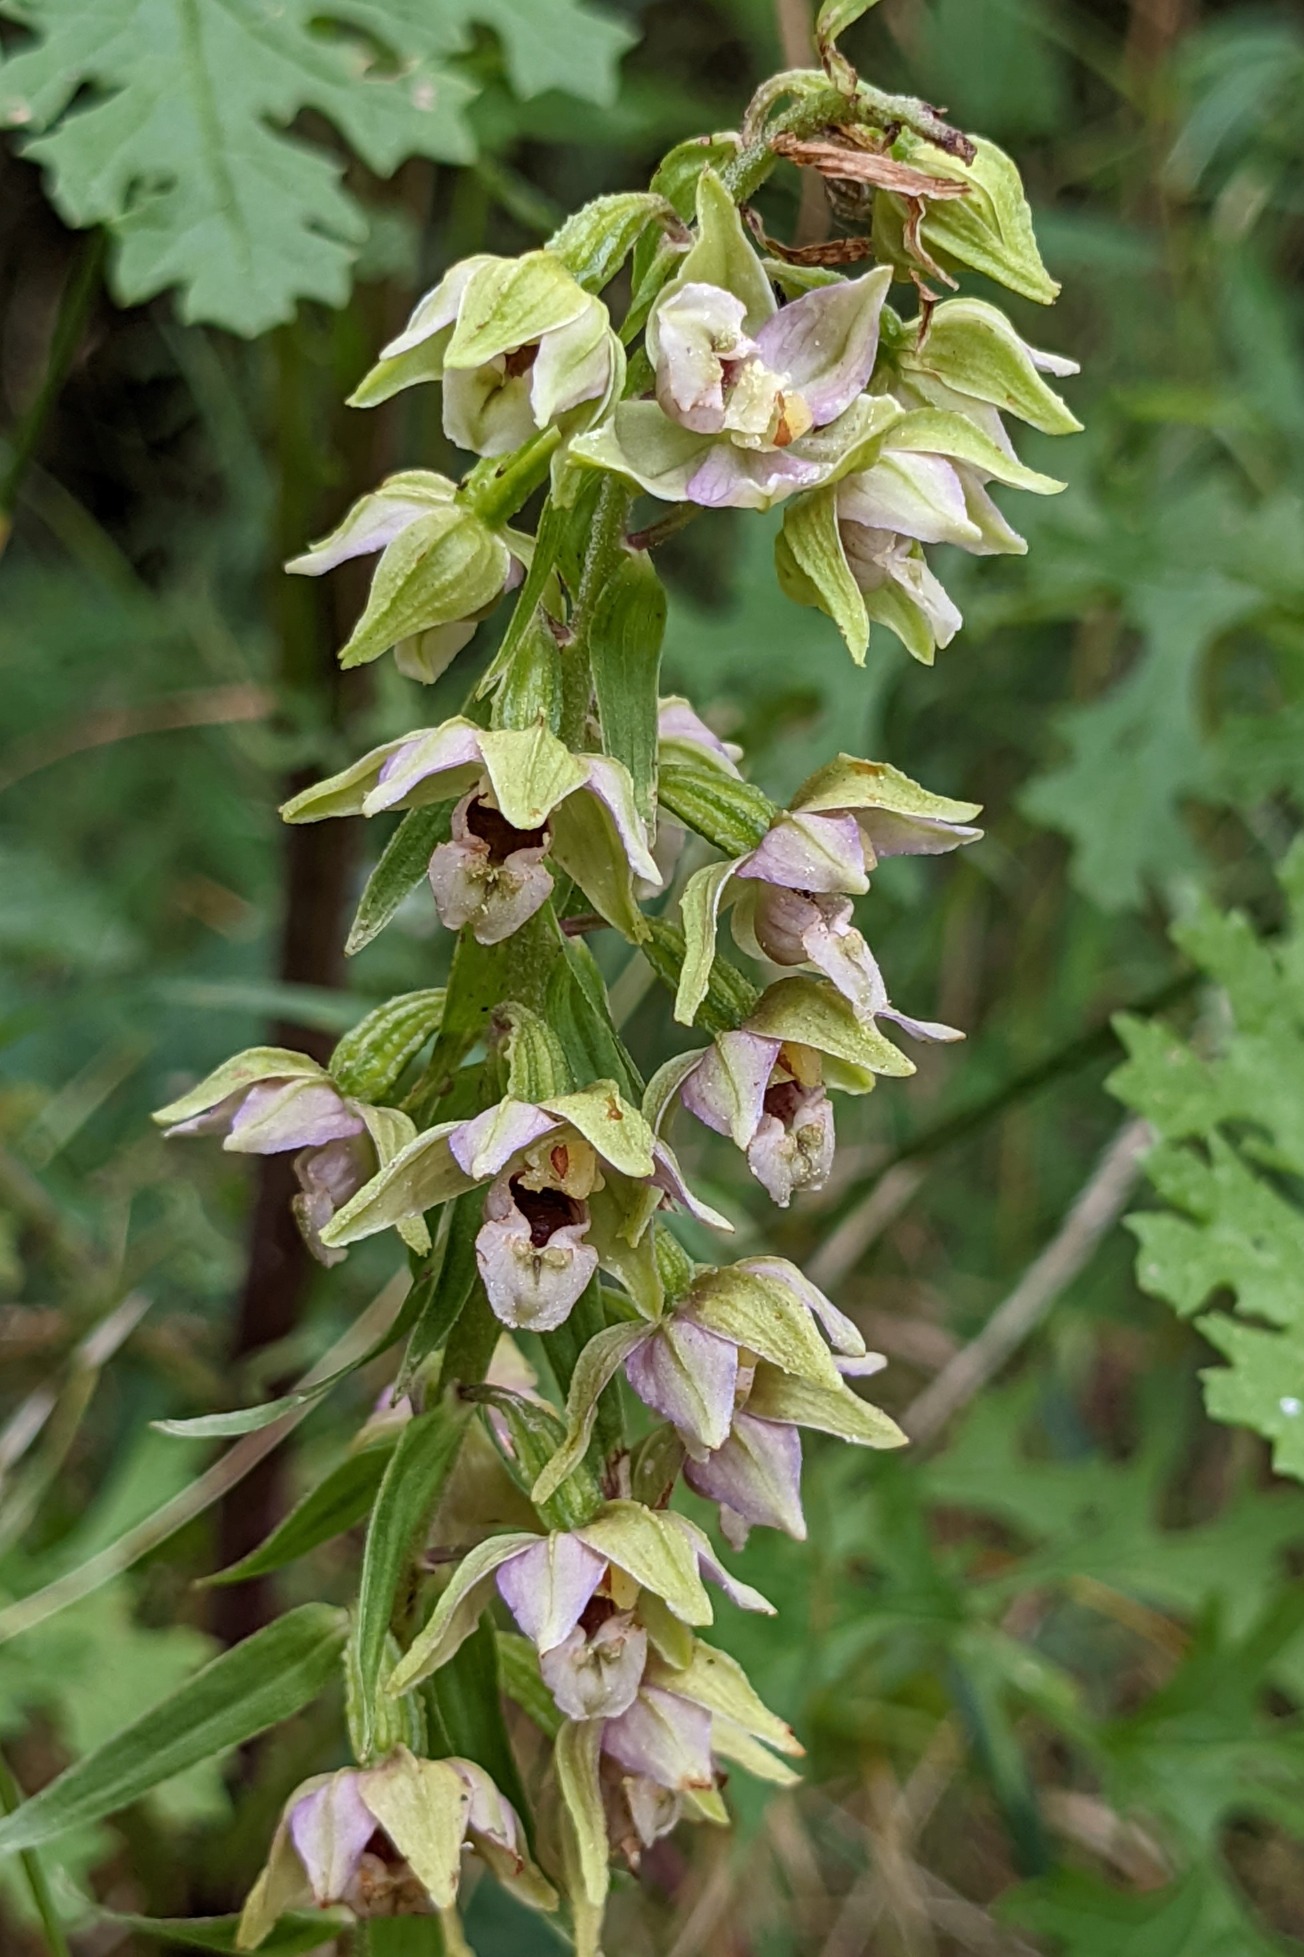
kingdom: Plantae
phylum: Tracheophyta
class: Liliopsida
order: Asparagales
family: Orchidaceae
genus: Epipactis
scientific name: Epipactis helleborine
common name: Skov-hullæbe
